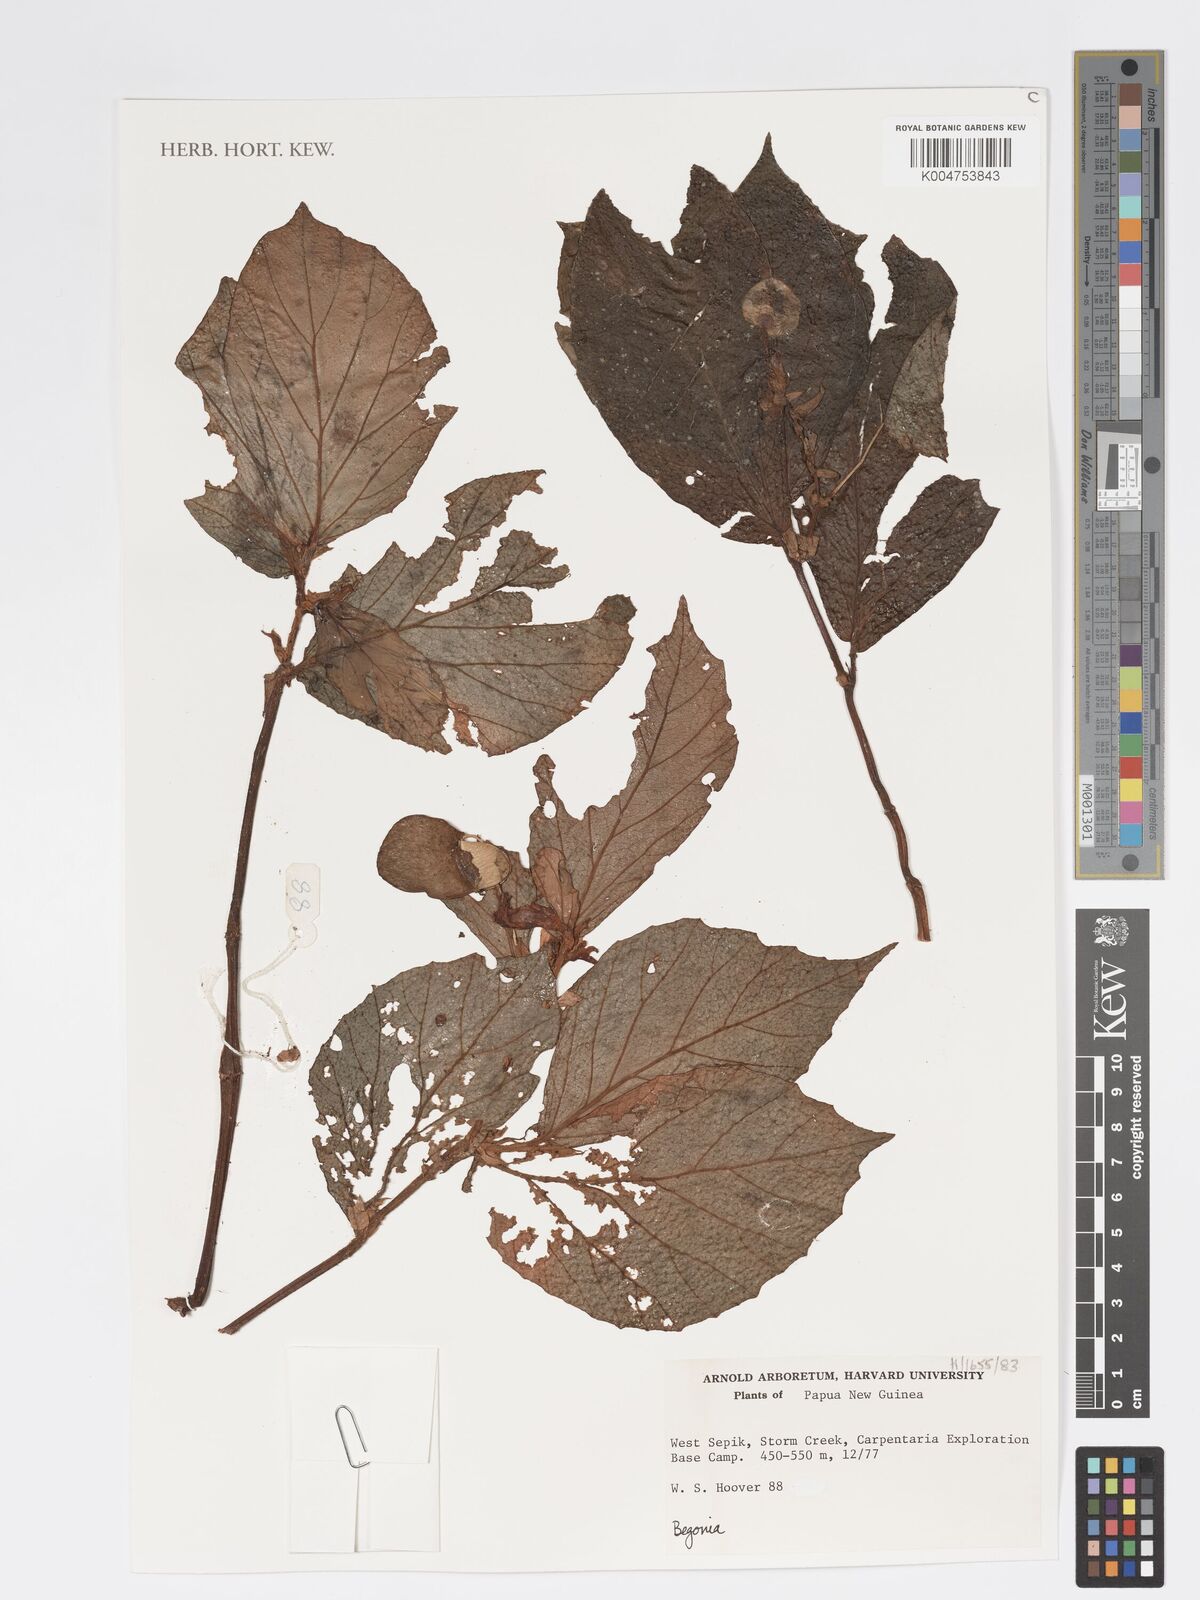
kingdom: Plantae
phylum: Tracheophyta
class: Magnoliopsida
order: Cucurbitales
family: Begoniaceae
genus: Begonia
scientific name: Begonia
